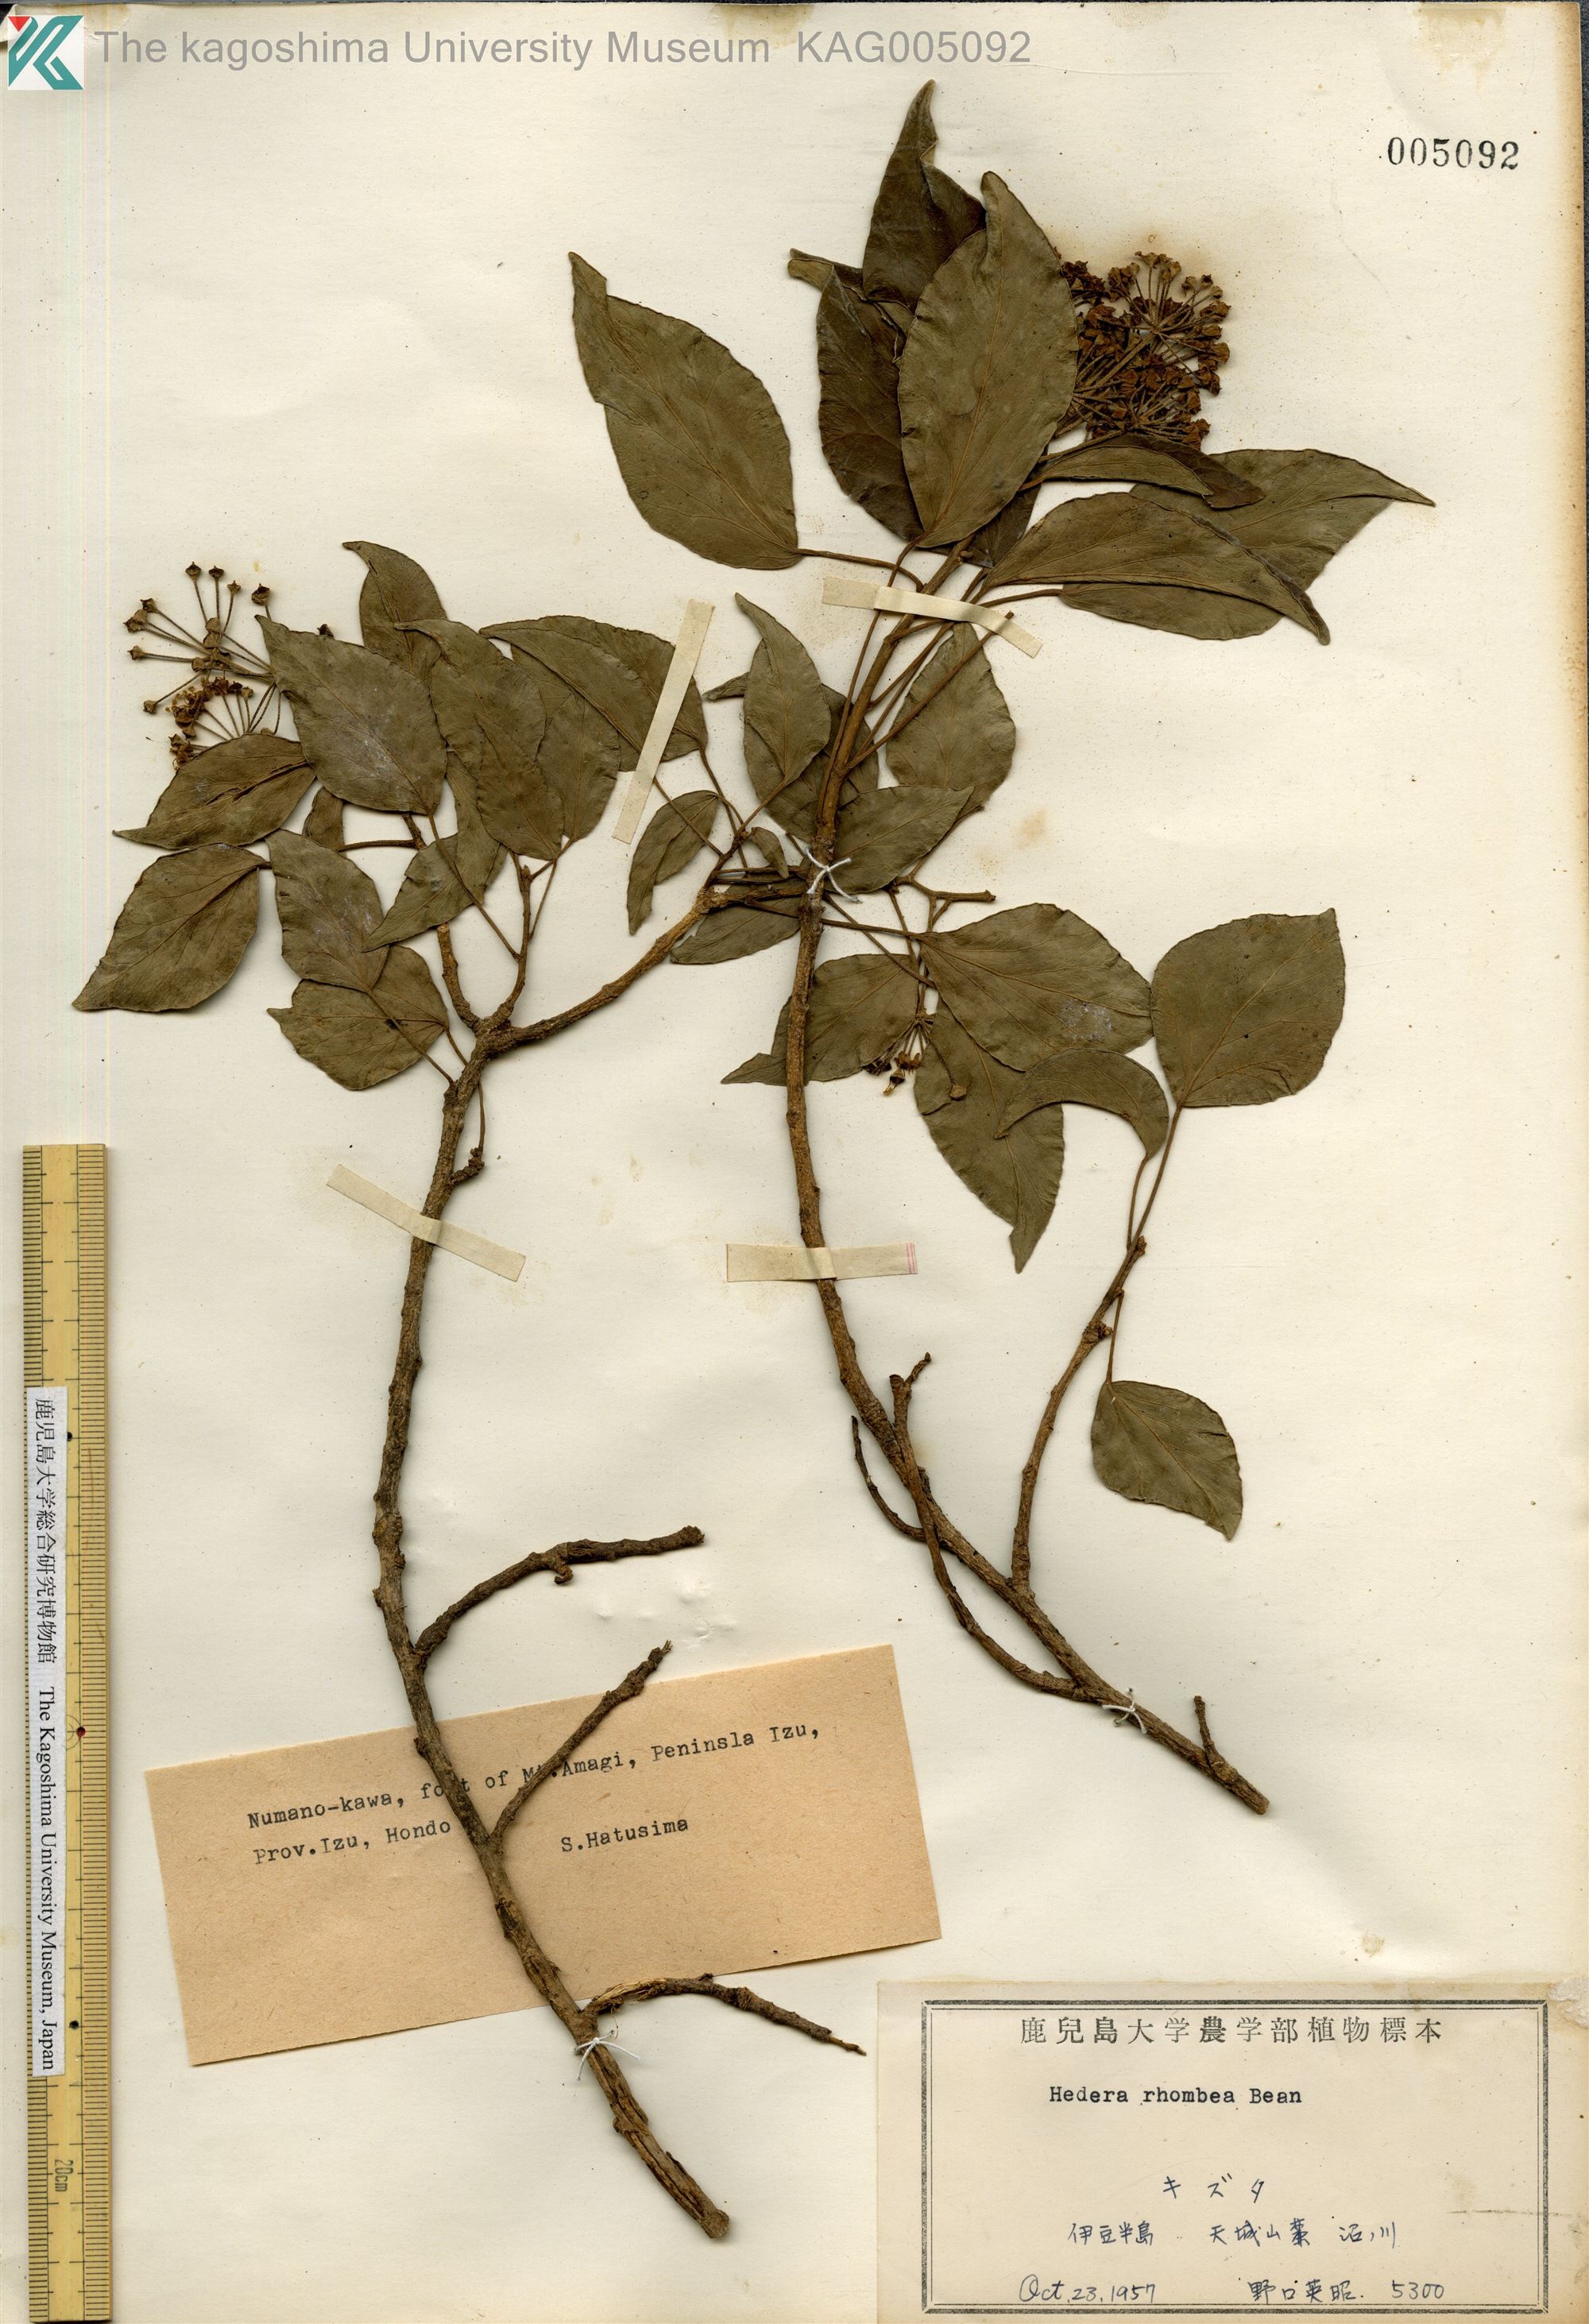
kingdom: Plantae
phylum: Tracheophyta
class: Magnoliopsida
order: Apiales
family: Araliaceae
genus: Hedera
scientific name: Hedera rhombea
